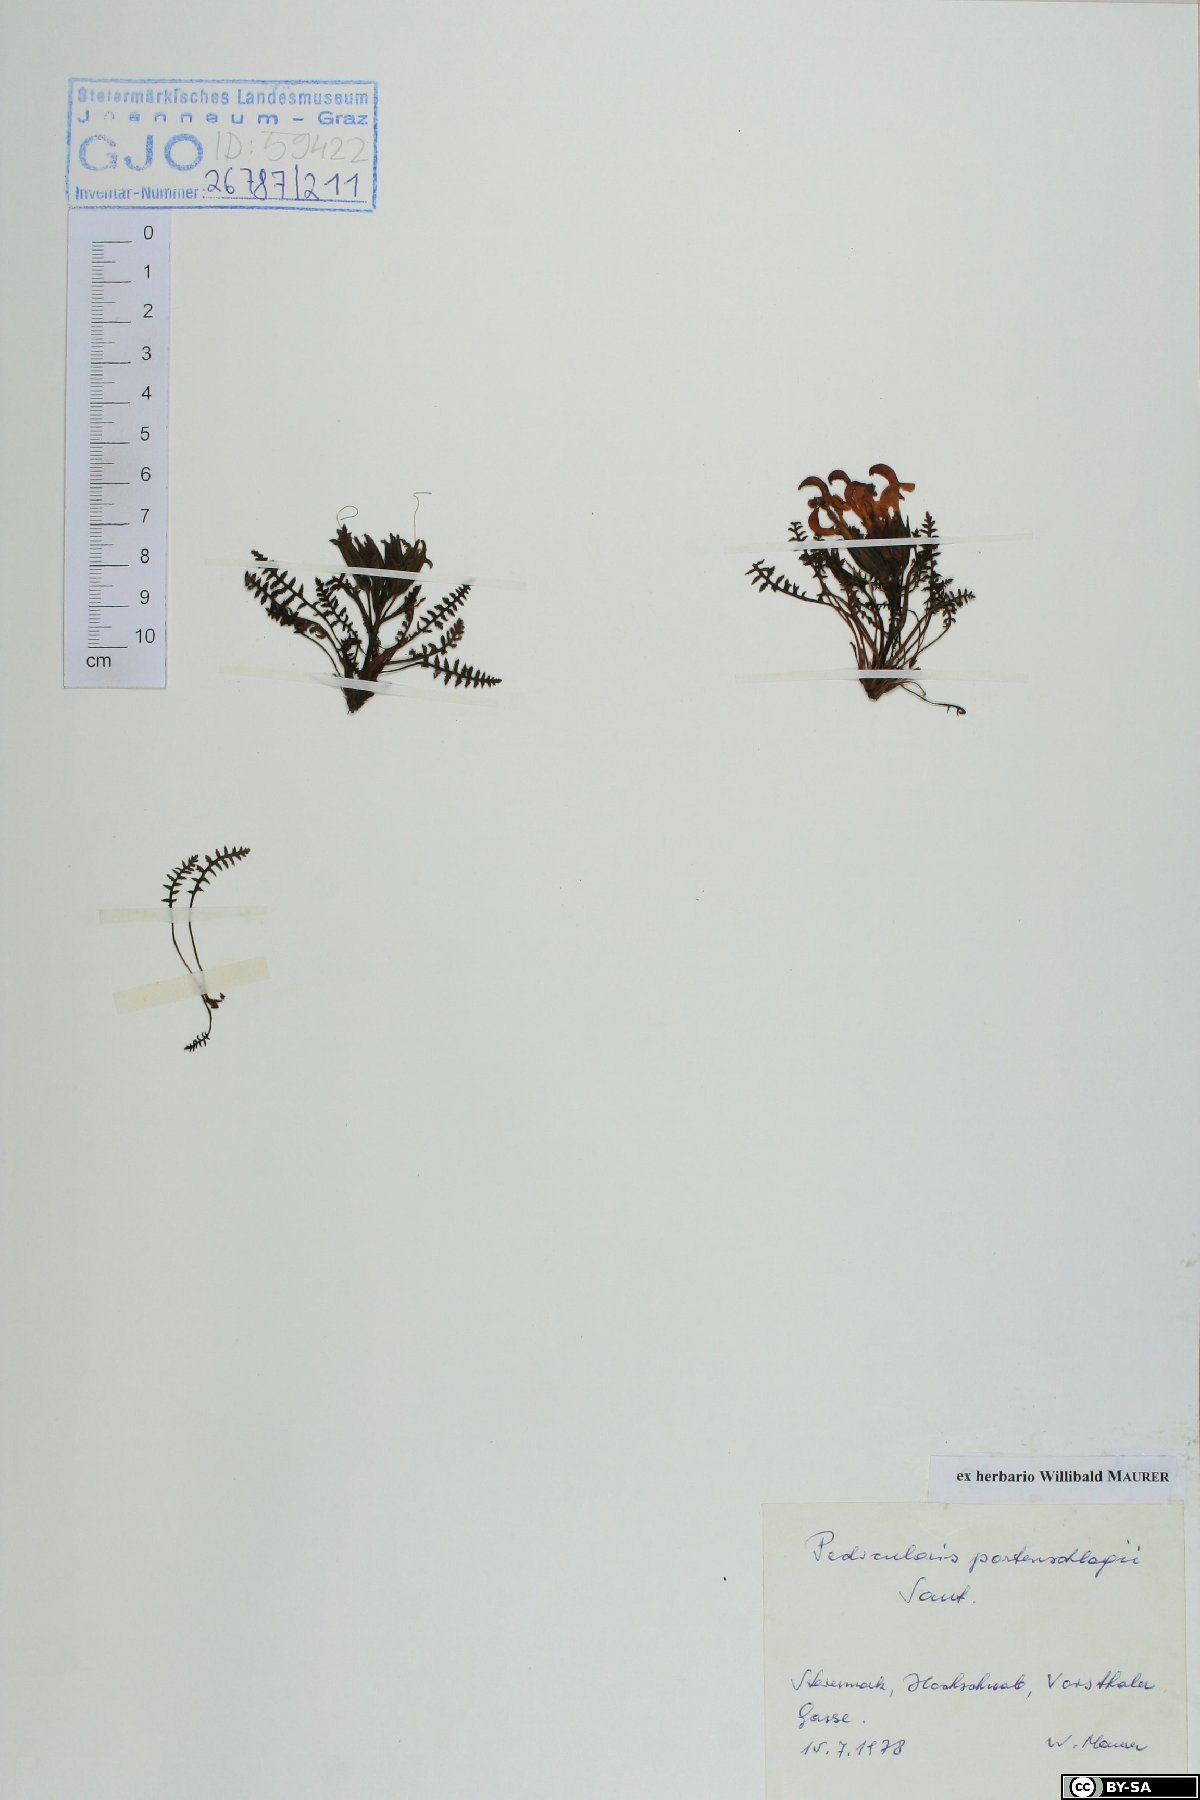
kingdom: Plantae
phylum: Tracheophyta
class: Magnoliopsida
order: Lamiales
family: Orobanchaceae
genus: Pedicularis
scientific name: Pedicularis portenschlagii
